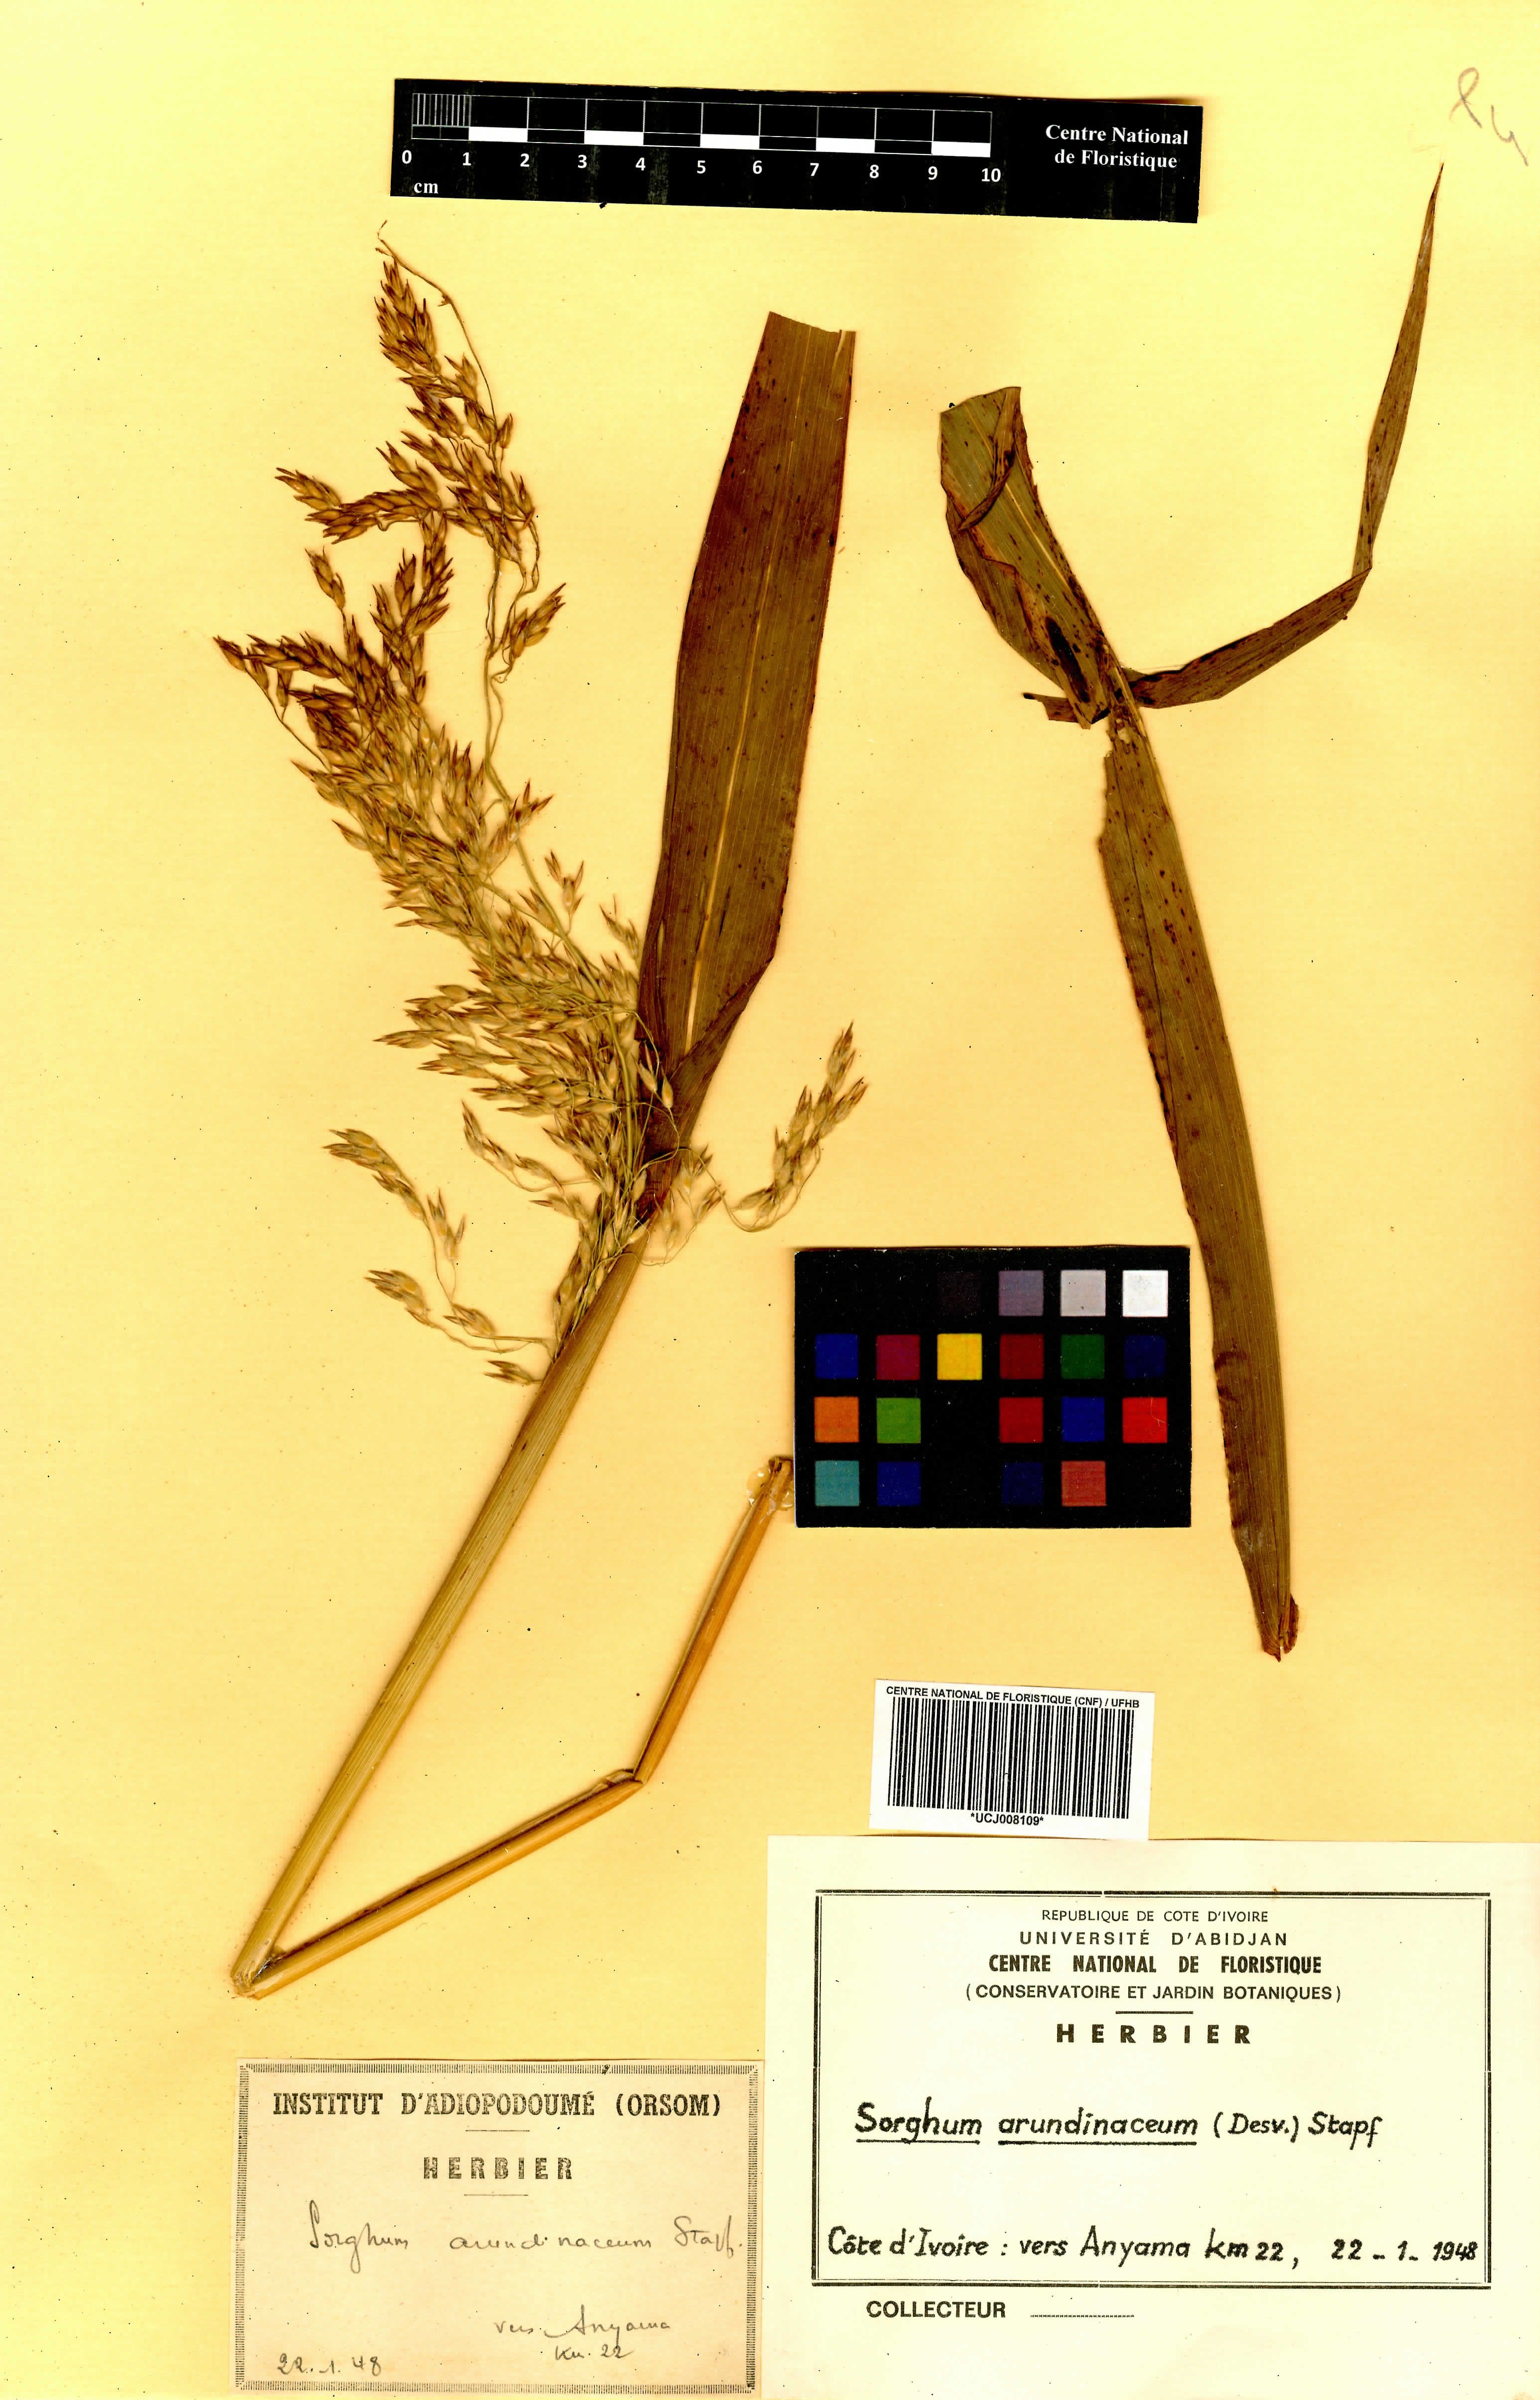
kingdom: Plantae
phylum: Tracheophyta
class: Liliopsida
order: Poales
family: Poaceae
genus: Sorghum
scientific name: Sorghum arundinaceum
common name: Sorghum
